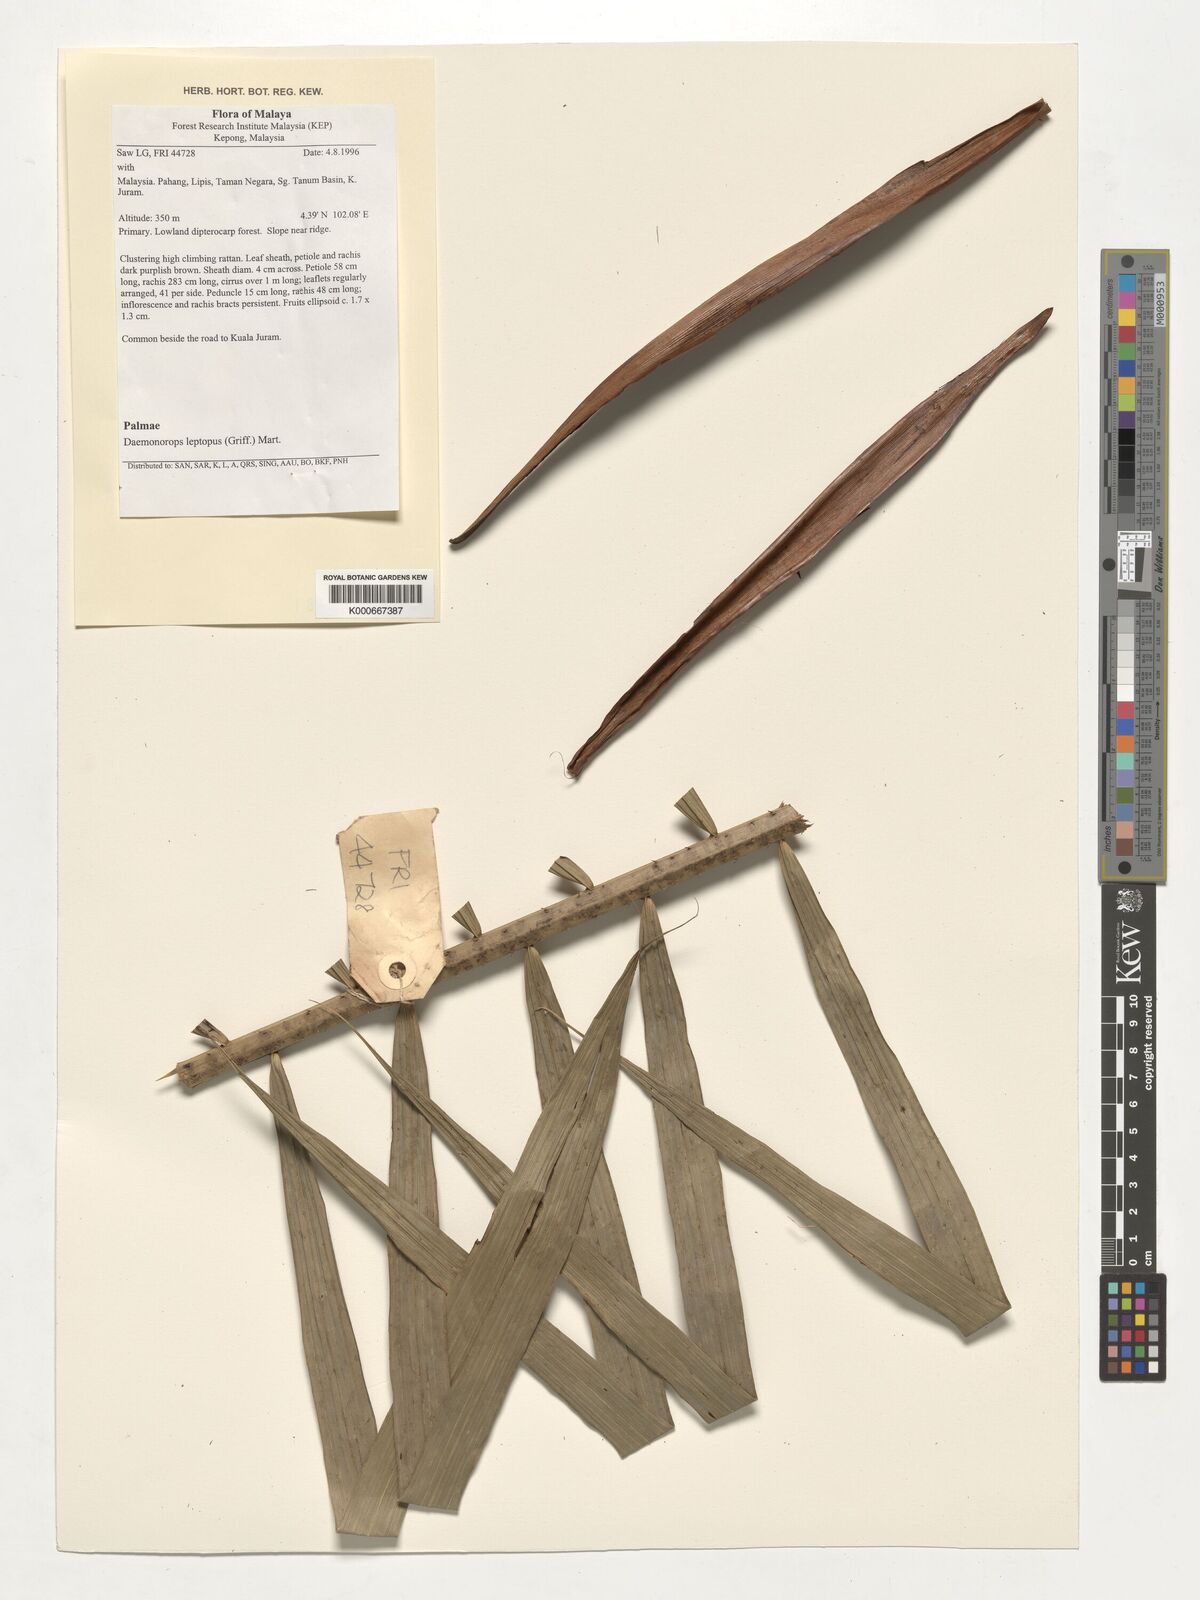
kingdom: Plantae
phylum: Tracheophyta
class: Liliopsida
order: Arecales
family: Arecaceae
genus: Calamus
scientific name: Calamus leptopus
